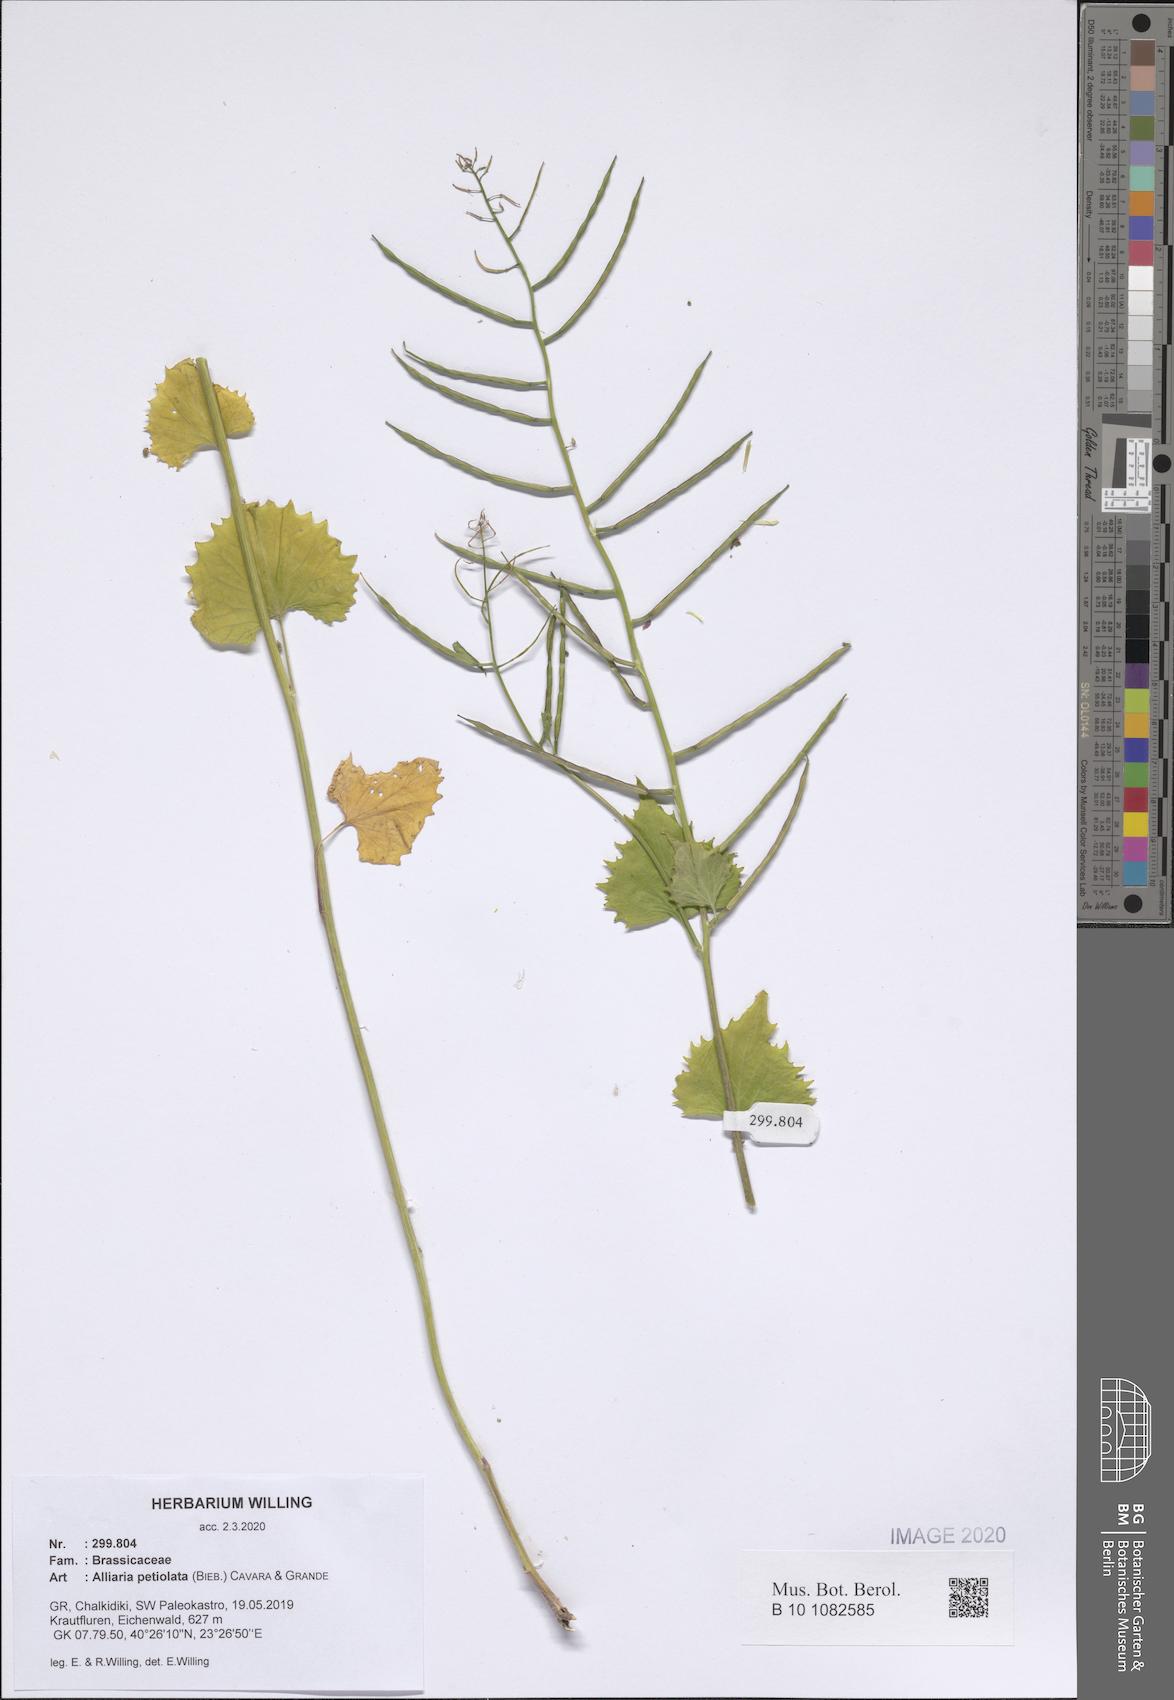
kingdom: Plantae
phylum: Tracheophyta
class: Magnoliopsida
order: Brassicales
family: Brassicaceae
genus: Alliaria
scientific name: Alliaria petiolata
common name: Garlic mustard
